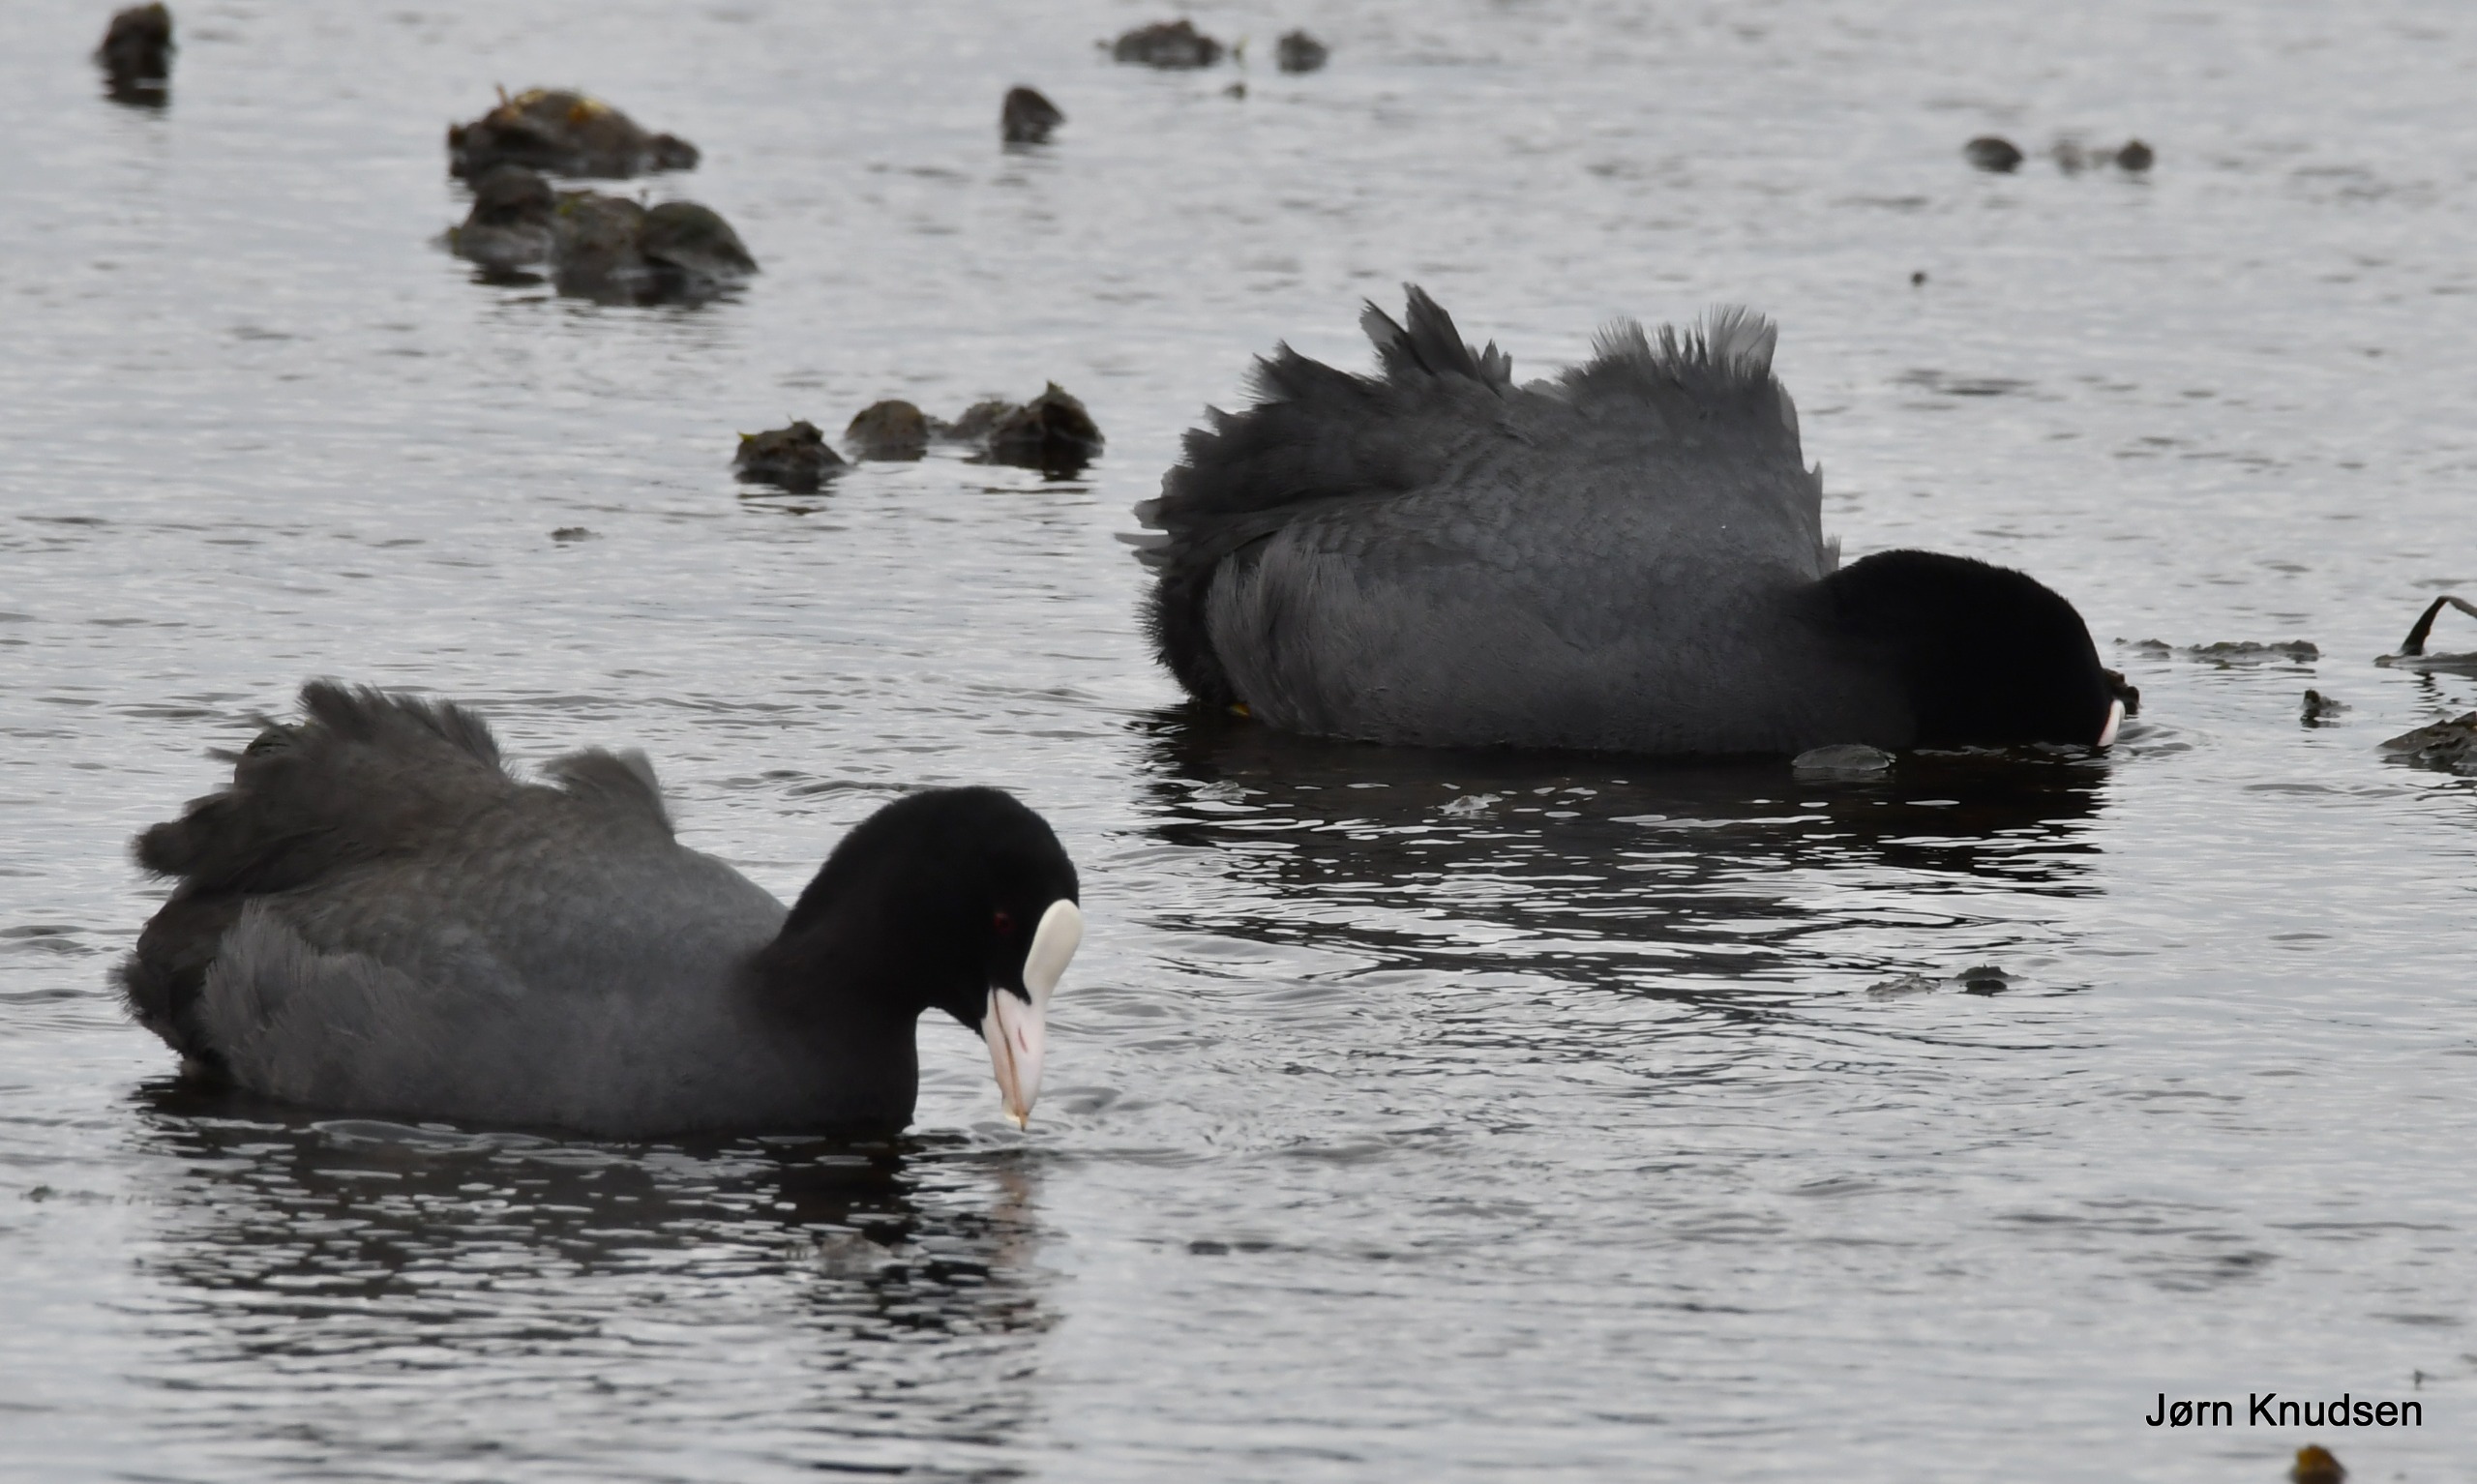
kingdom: Animalia
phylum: Chordata
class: Aves
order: Gruiformes
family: Rallidae
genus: Fulica
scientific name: Fulica atra
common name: Blishøne
